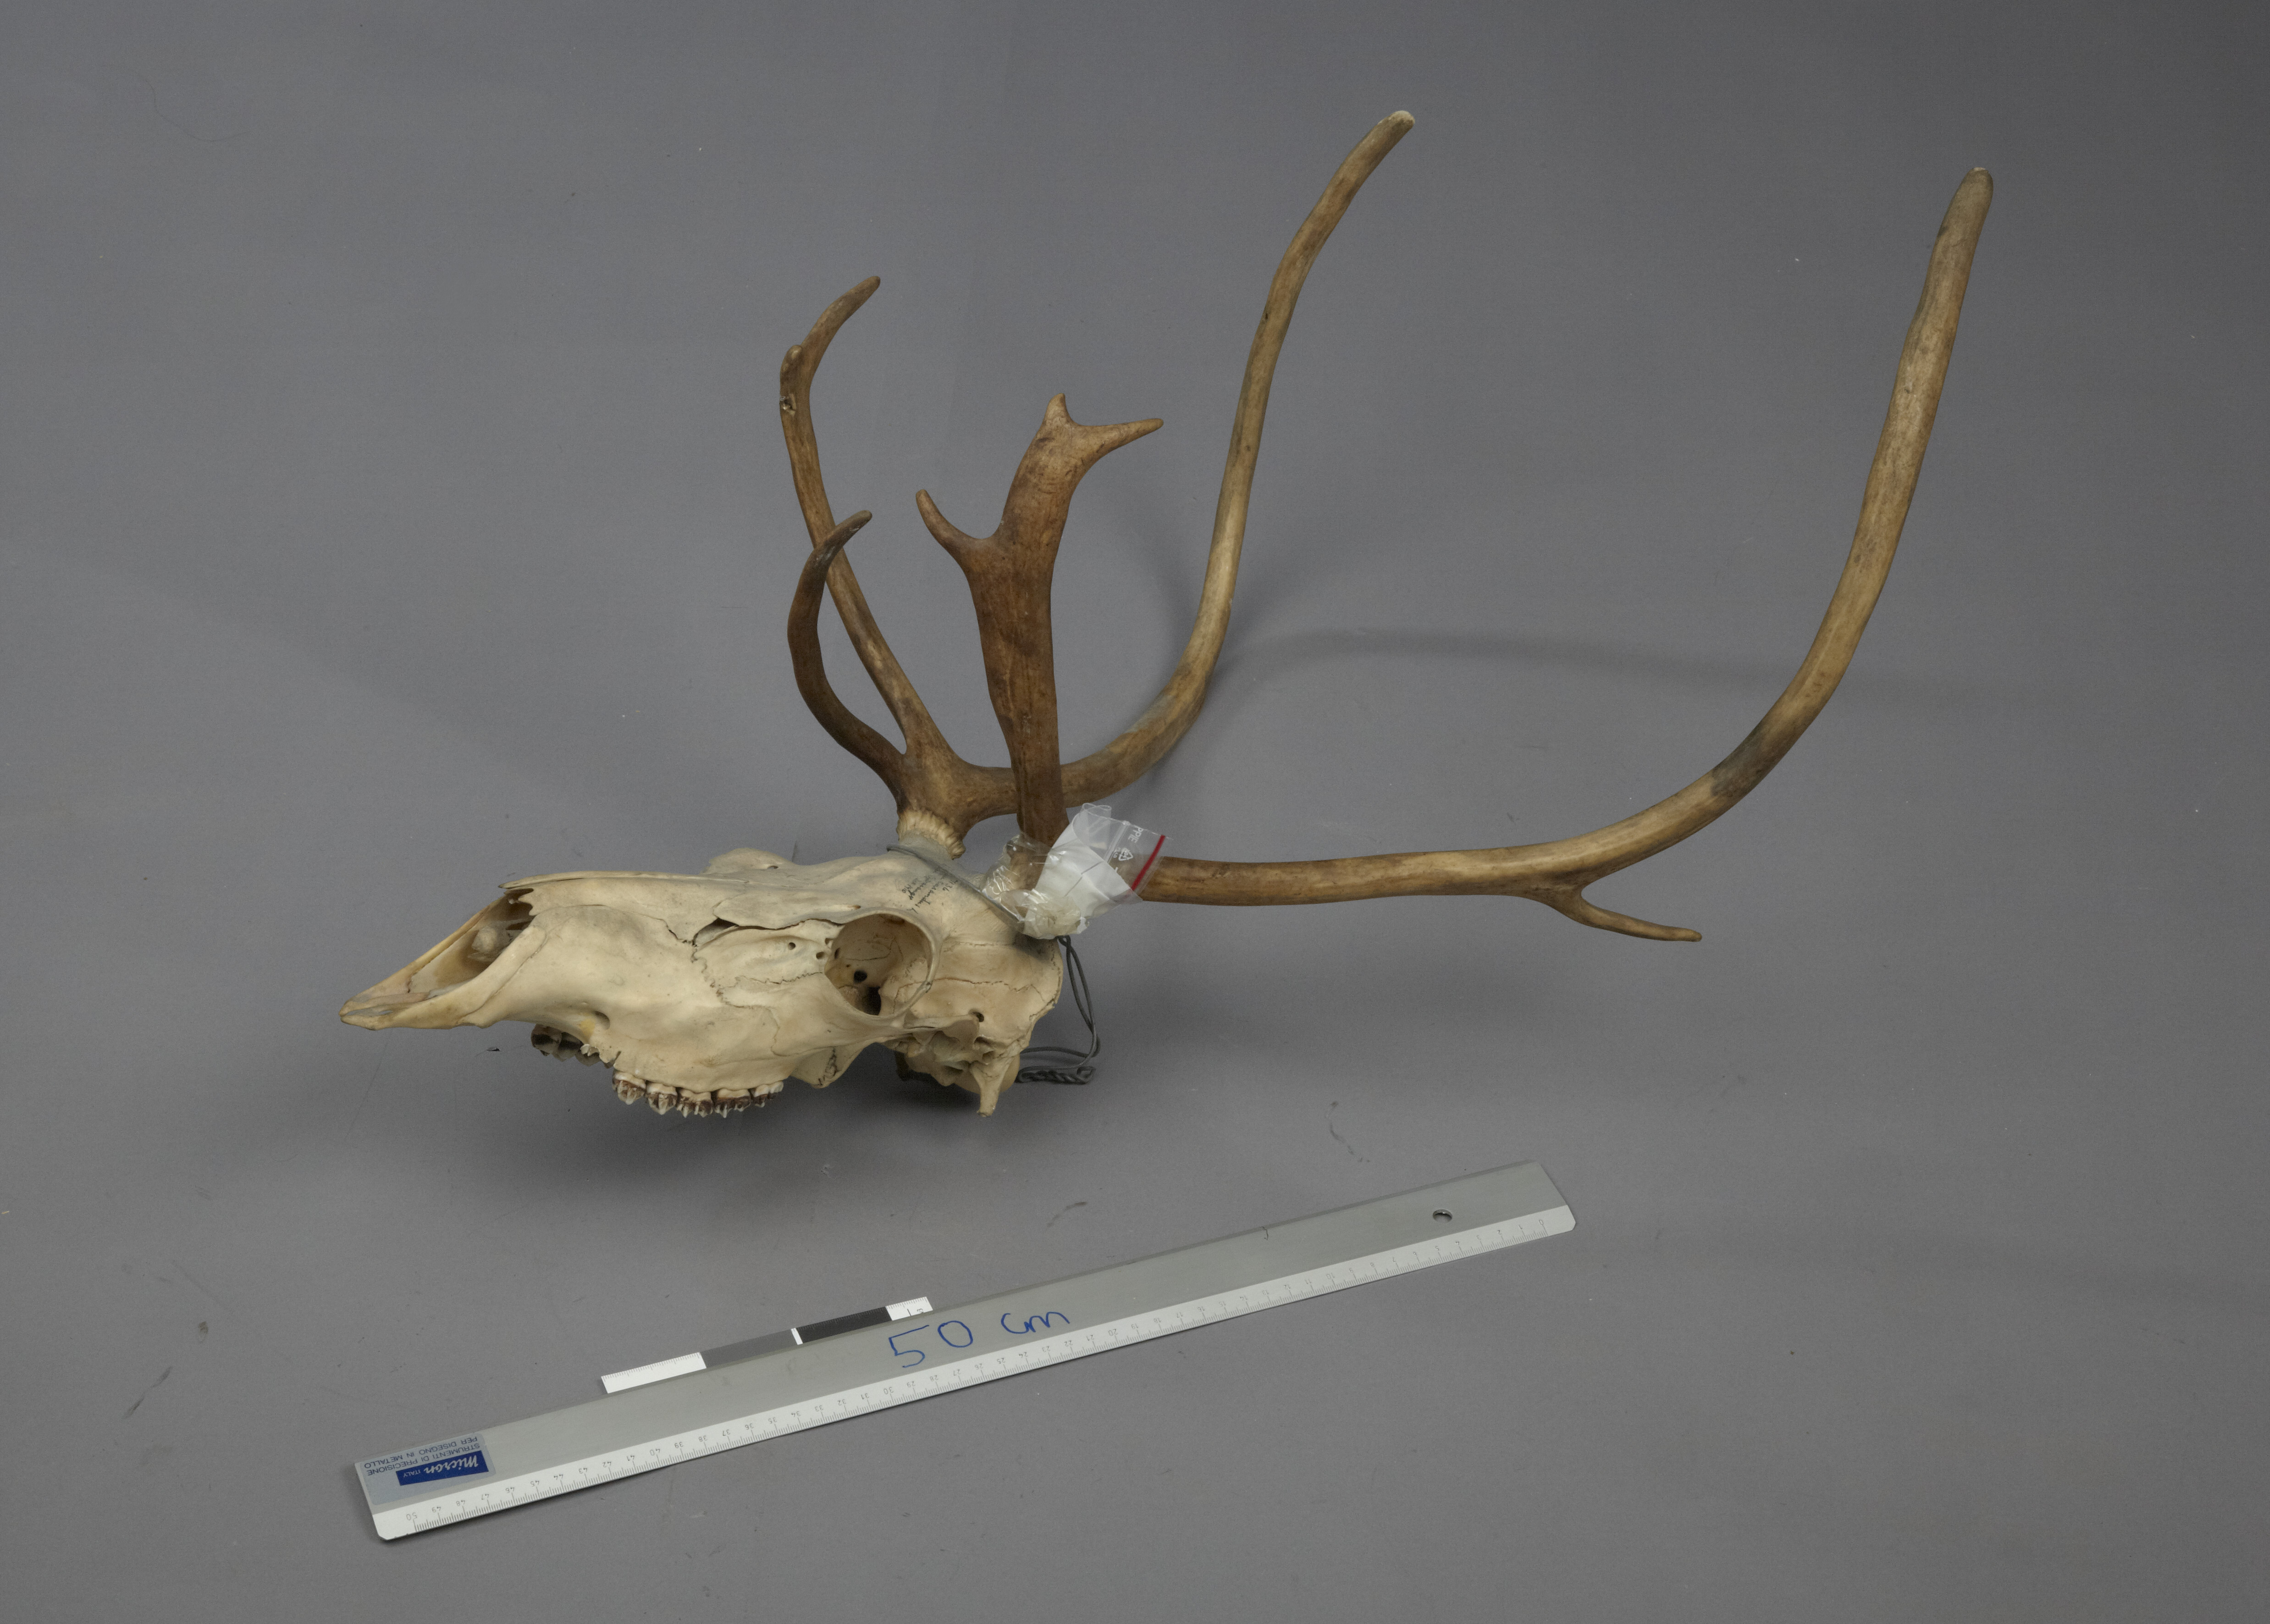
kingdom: Animalia
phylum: Chordata
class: Mammalia
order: Artiodactyla
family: Cervidae
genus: Rangifer
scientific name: Rangifer tarandus
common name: Reindeer
